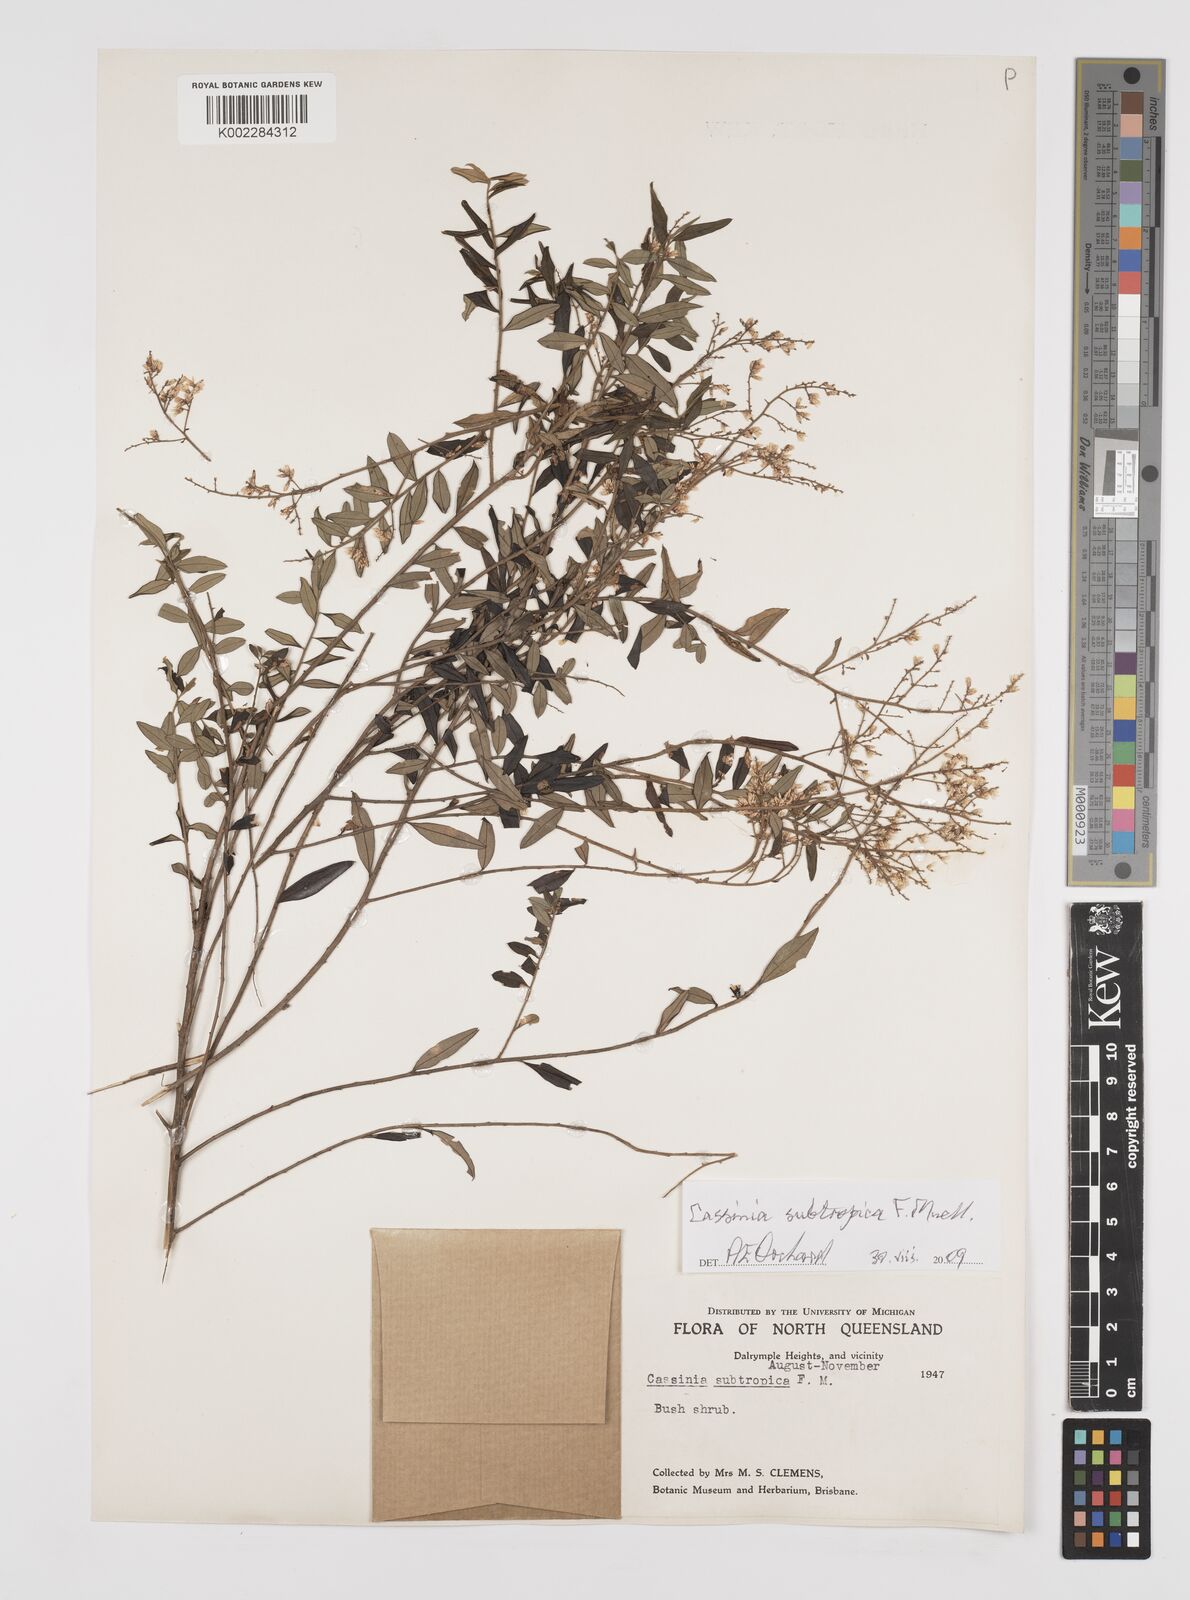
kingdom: Plantae
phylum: Tracheophyta
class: Magnoliopsida
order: Asterales
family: Asteraceae
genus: Cassinia
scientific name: Cassinia subtropica
